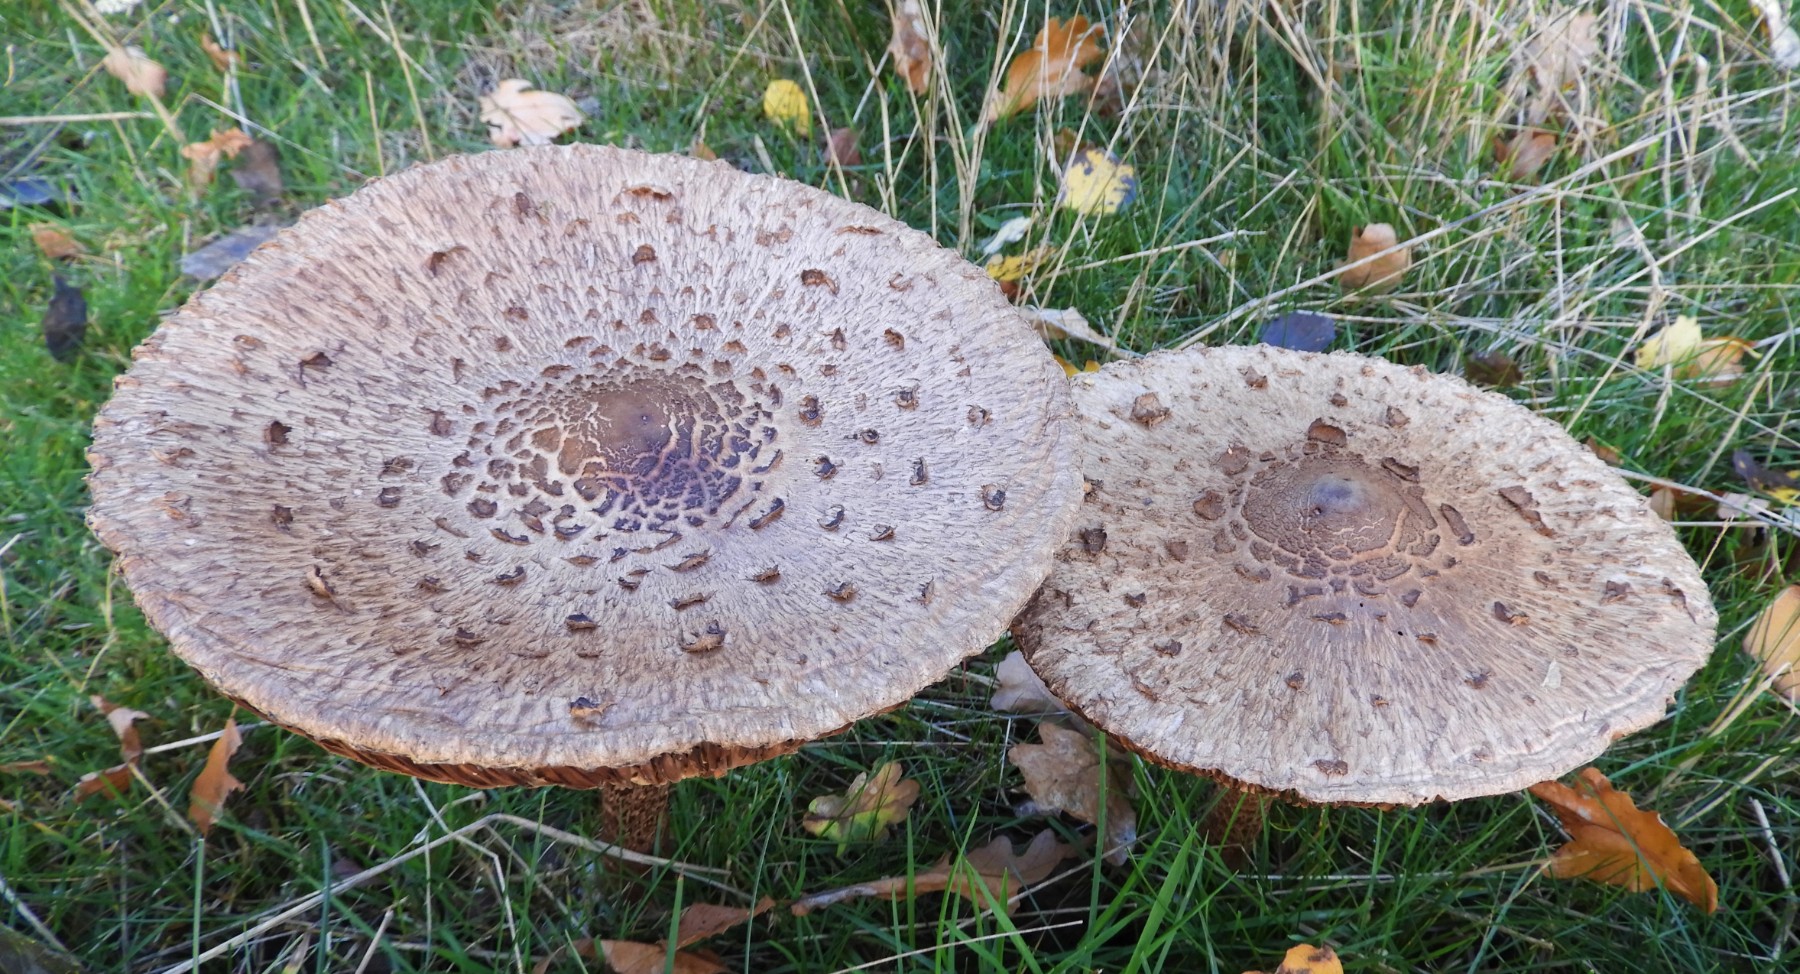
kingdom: Fungi
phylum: Basidiomycota
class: Agaricomycetes
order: Agaricales
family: Agaricaceae
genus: Macrolepiota
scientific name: Macrolepiota procera
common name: stor kæmpeparasolhat
